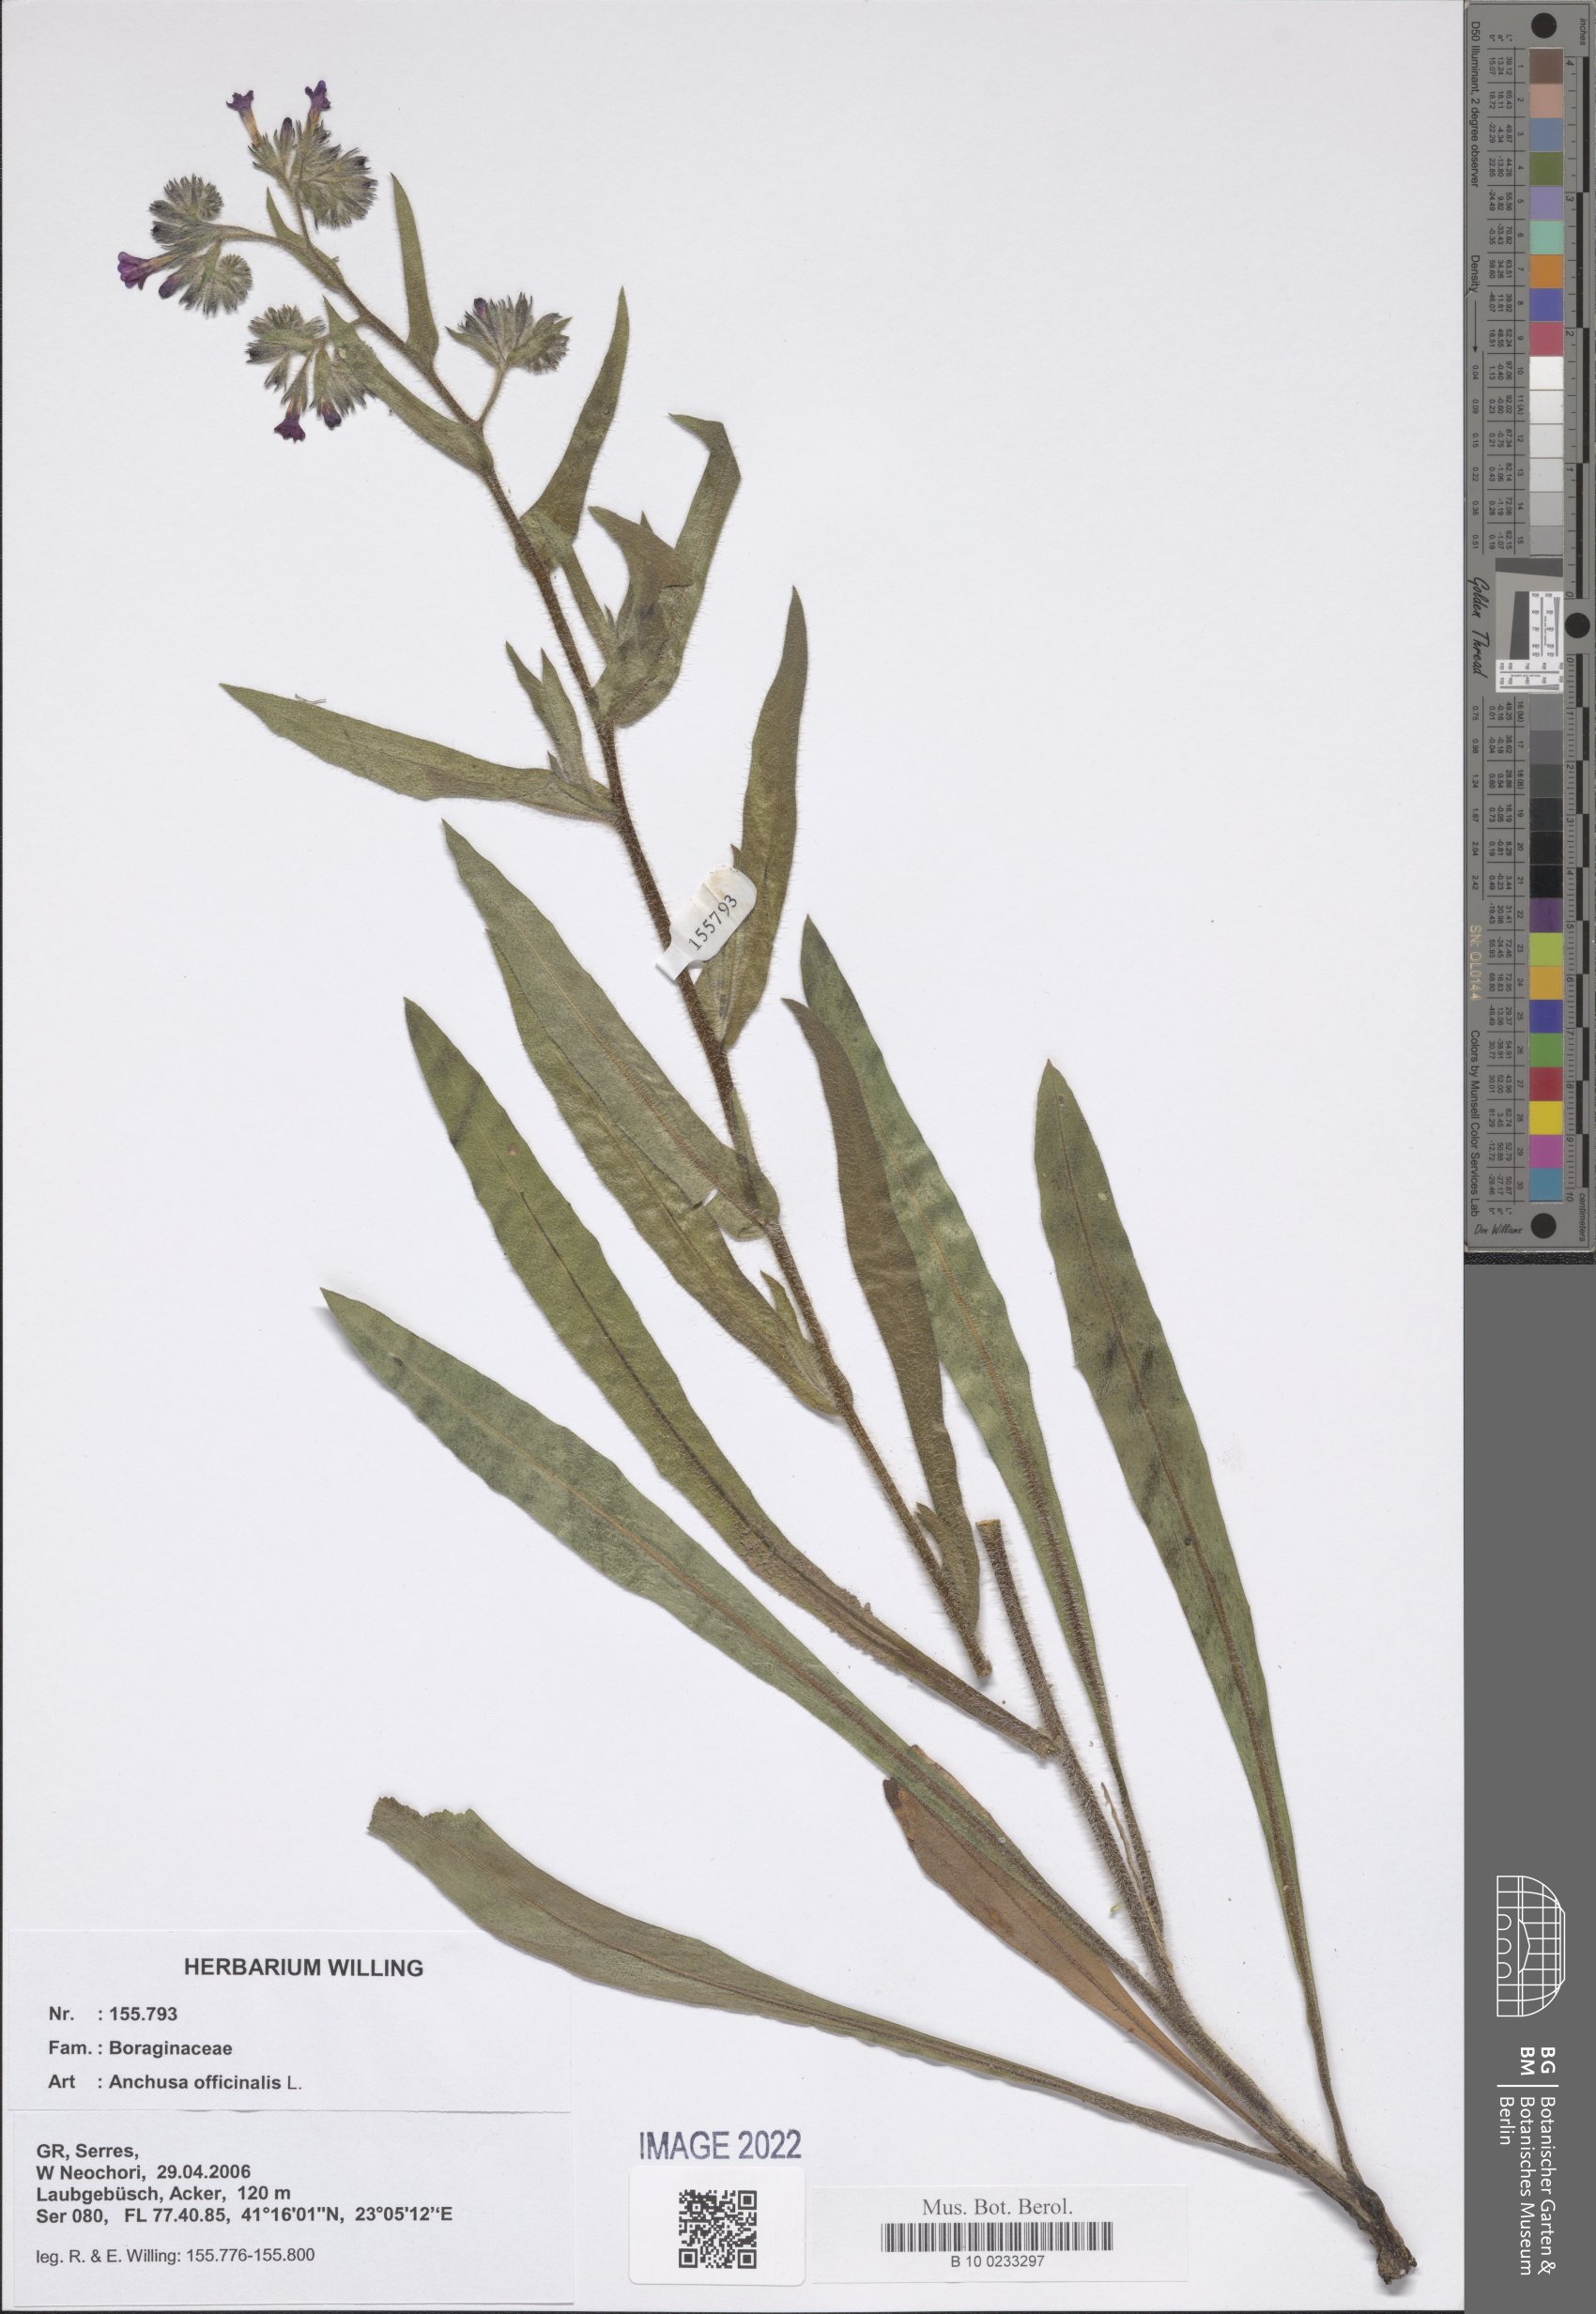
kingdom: Plantae
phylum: Tracheophyta
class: Magnoliopsida
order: Boraginales
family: Boraginaceae
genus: Anchusa
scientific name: Anchusa officinalis
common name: Alkanet
